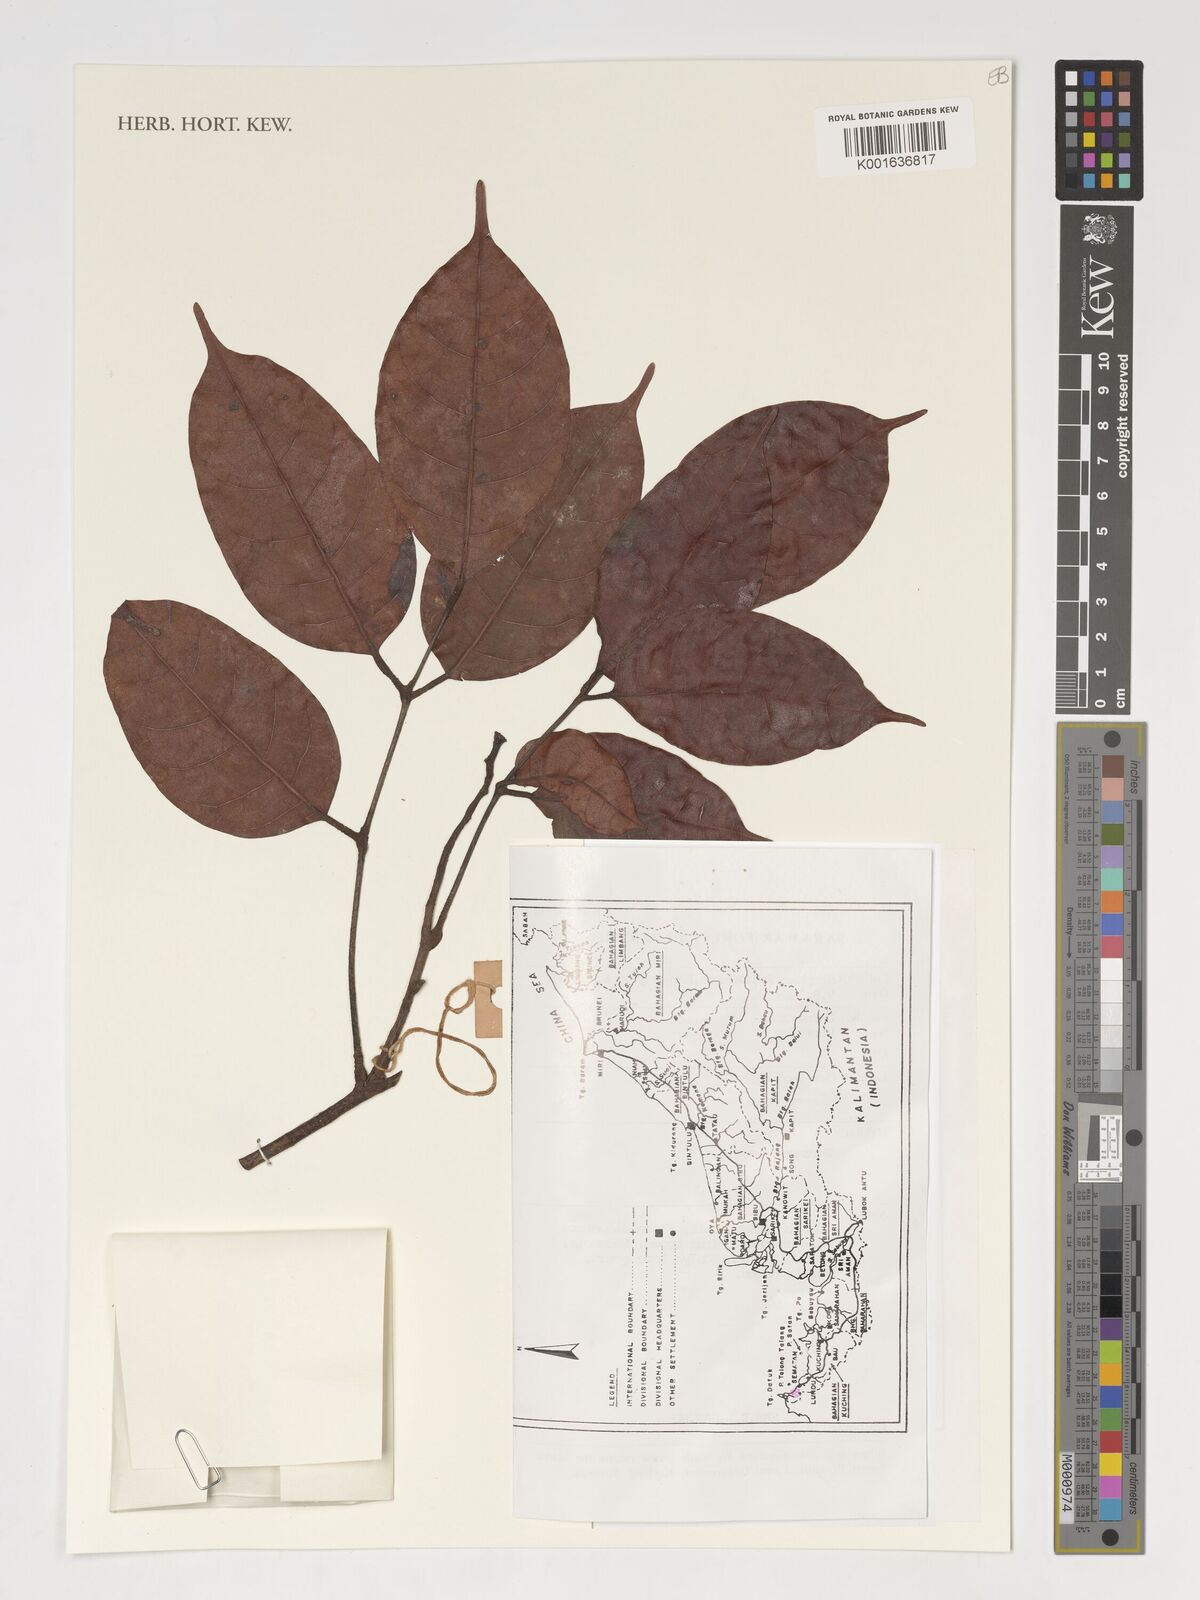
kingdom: Plantae
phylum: Tracheophyta
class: Magnoliopsida
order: Sapindales
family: Burseraceae
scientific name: Burseraceae
